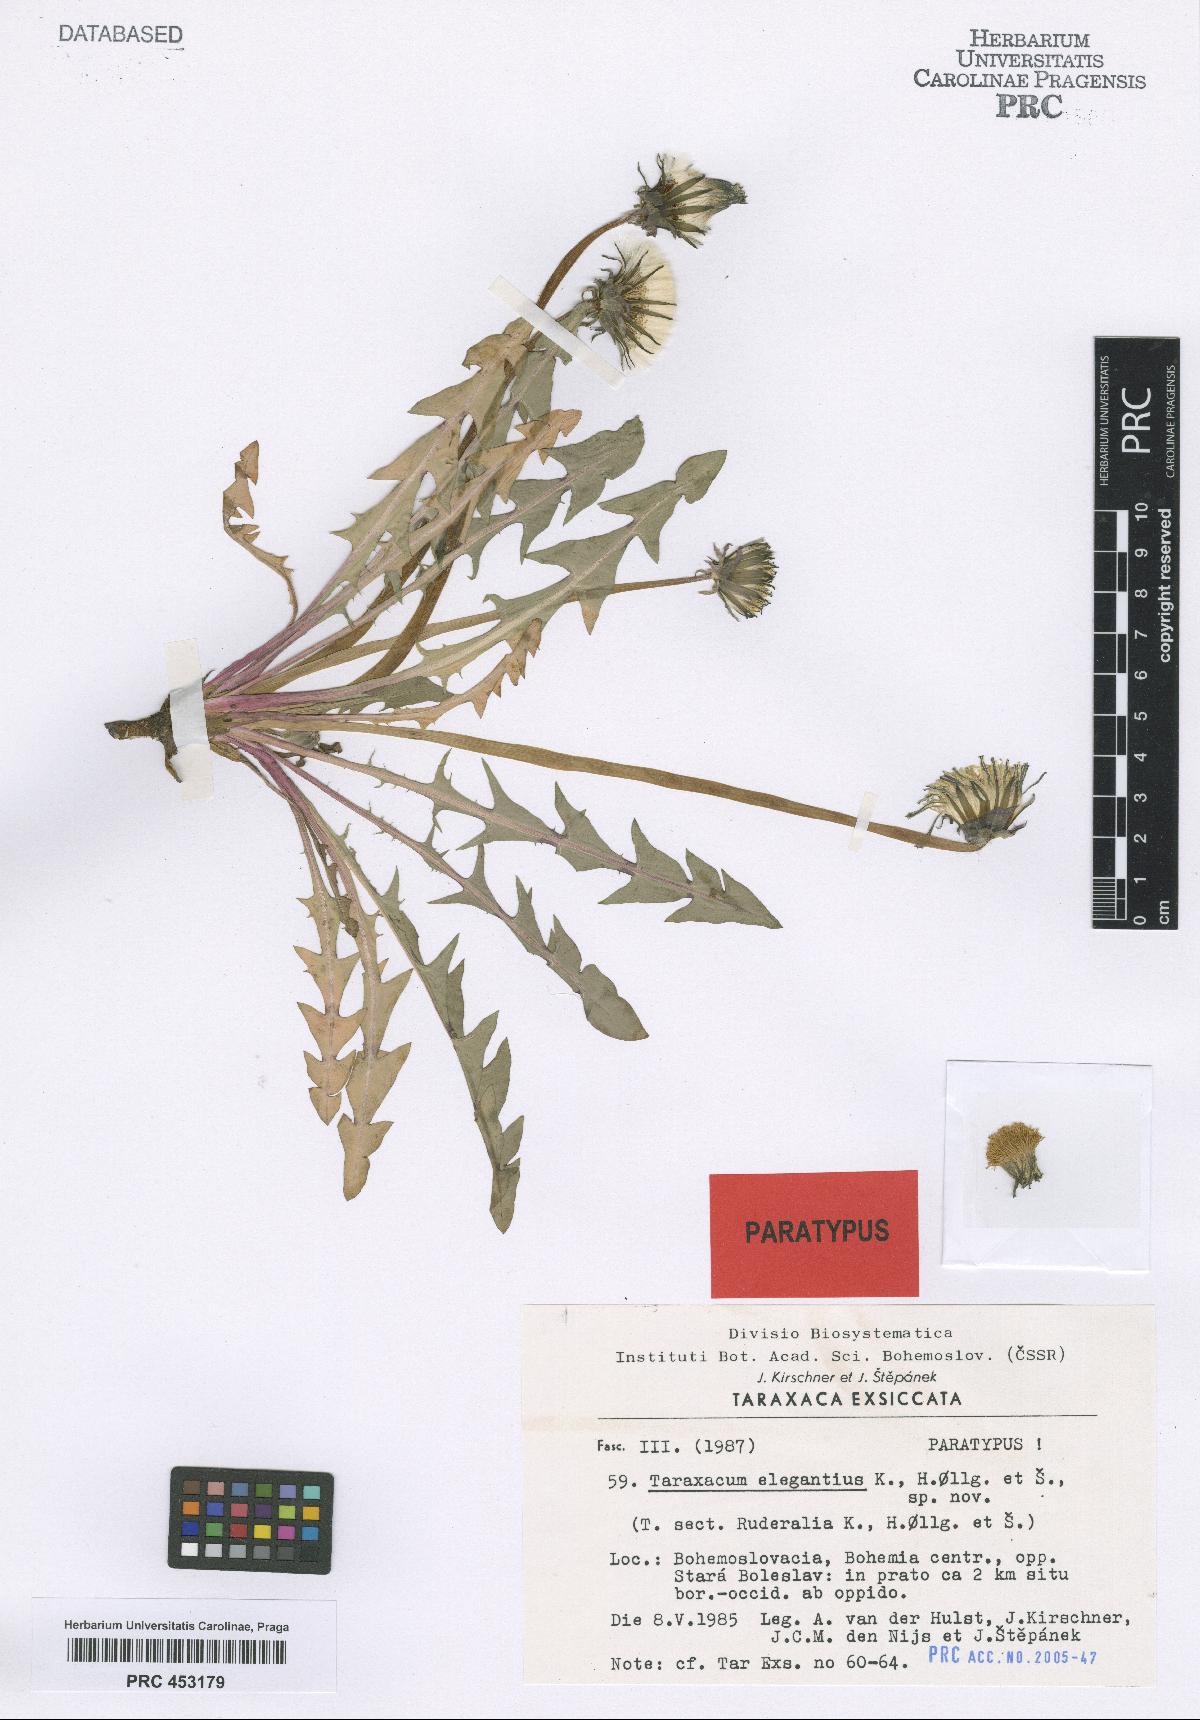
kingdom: Plantae
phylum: Tracheophyta
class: Magnoliopsida
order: Asterales
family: Asteraceae
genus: Taraxacum
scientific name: Taraxacum elegantius
